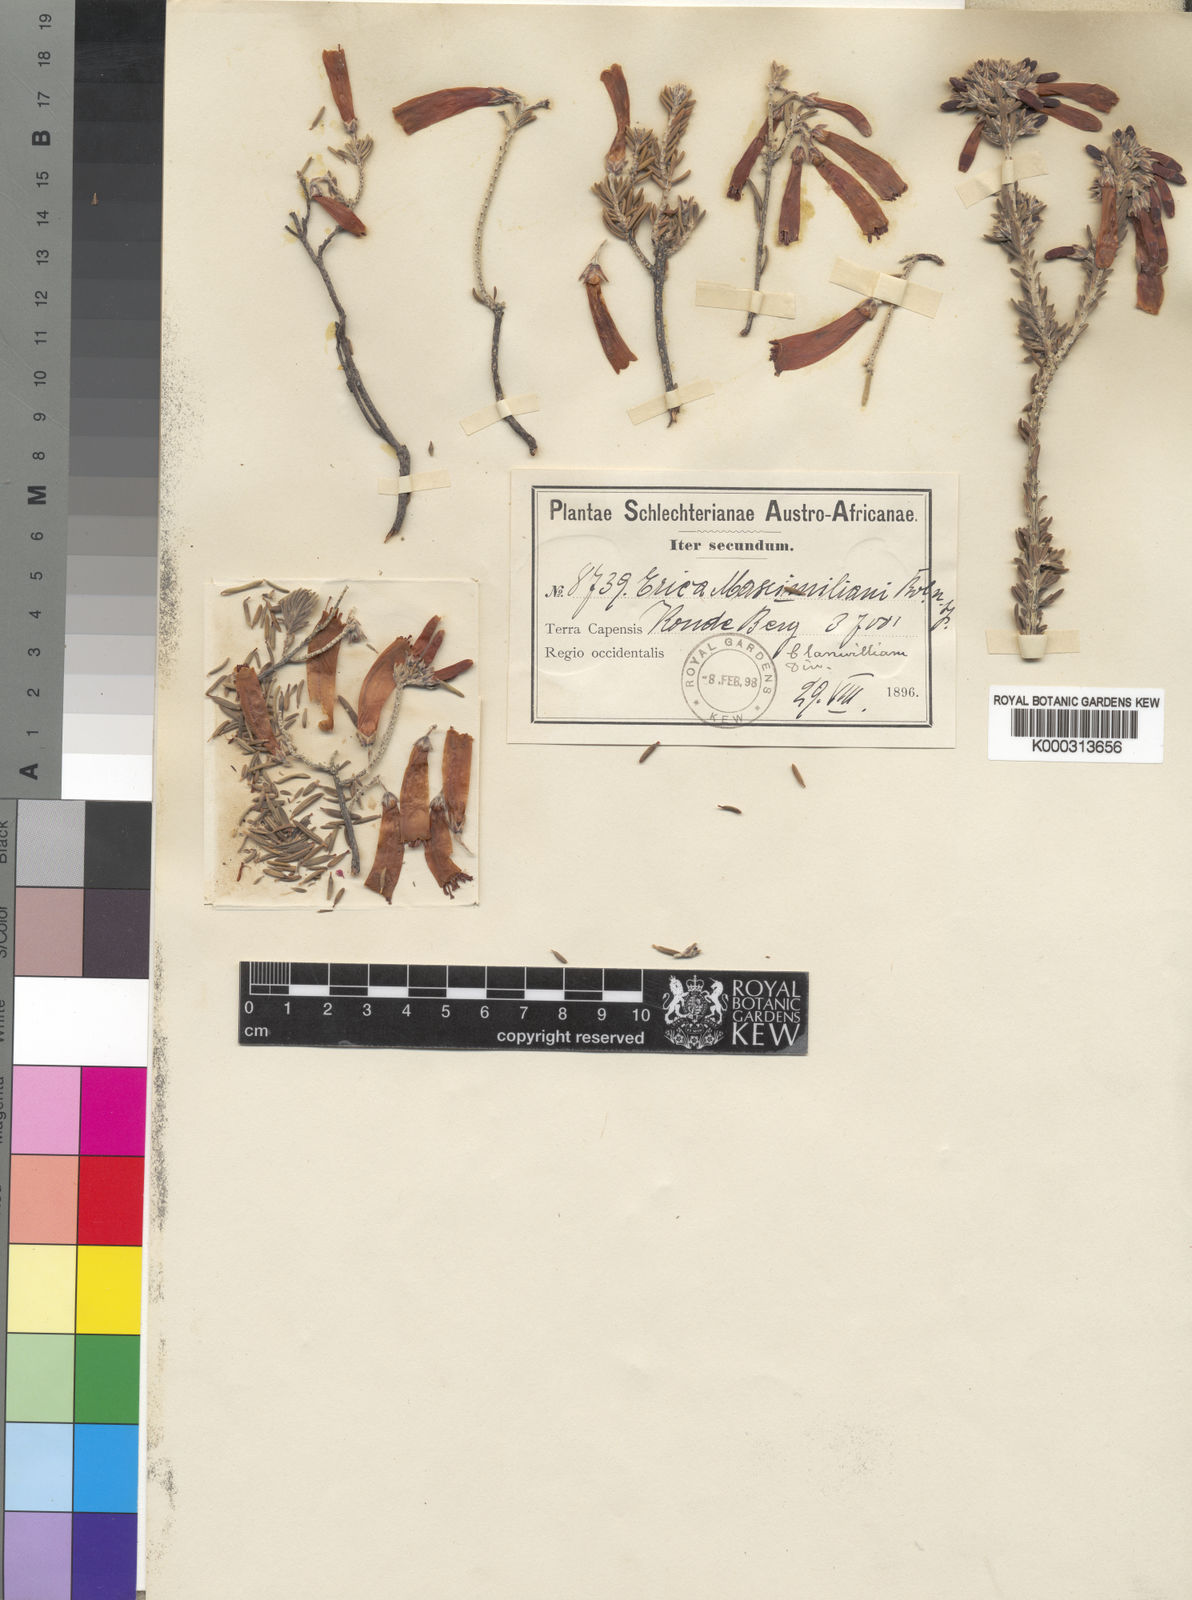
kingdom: Plantae
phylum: Tracheophyta
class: Magnoliopsida
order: Ericales
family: Ericaceae
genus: Erica
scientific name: Erica maximiliani
